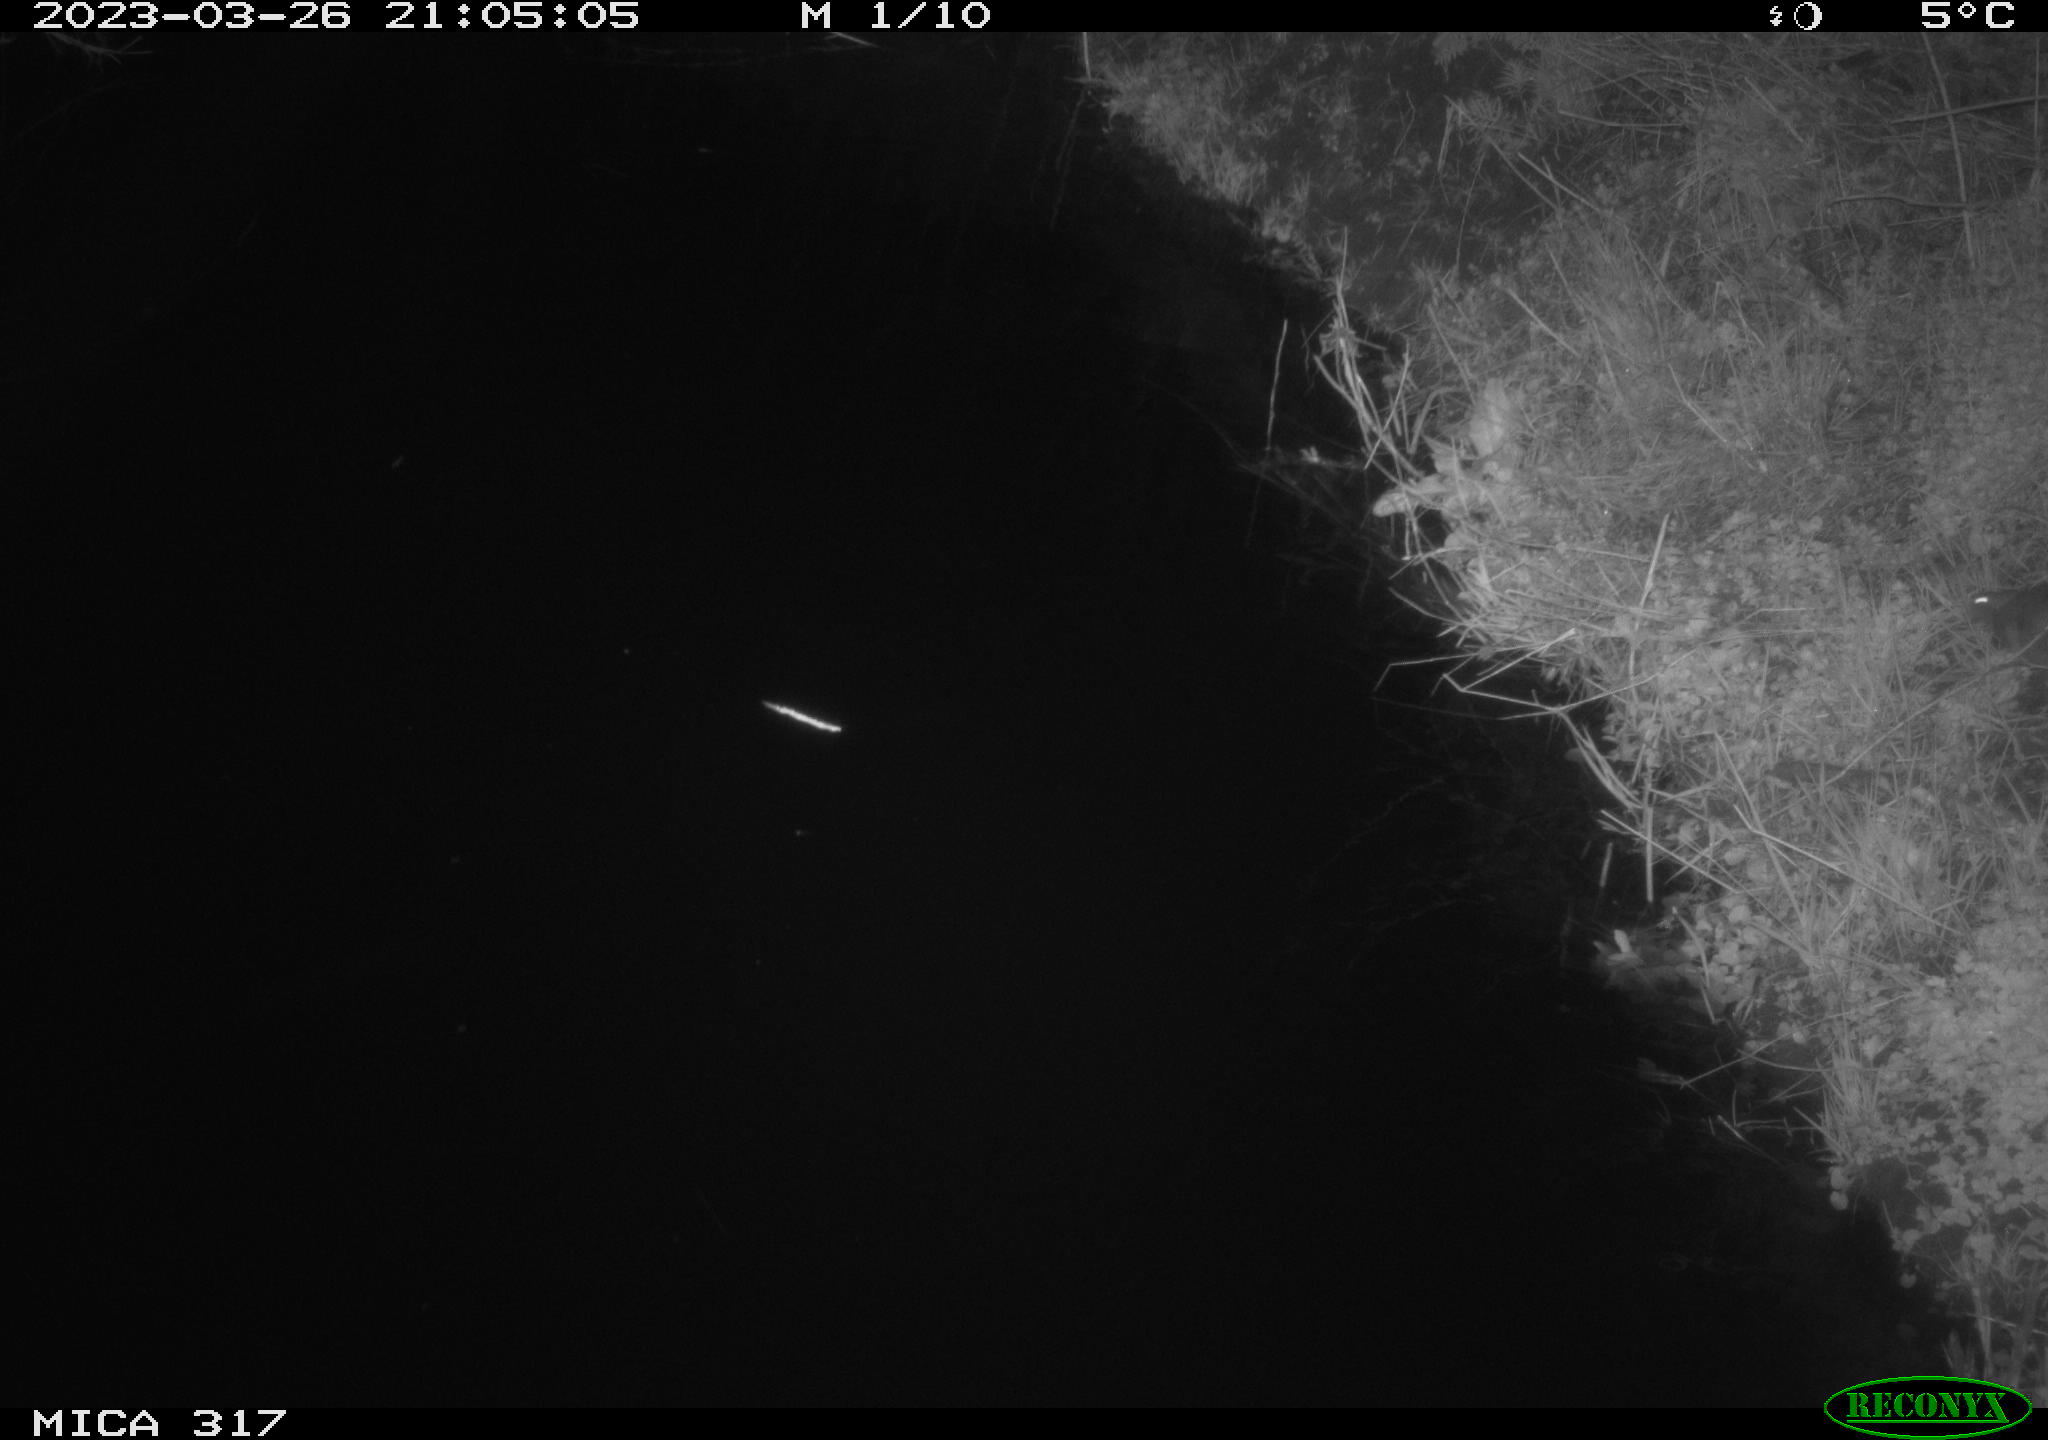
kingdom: Animalia
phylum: Chordata
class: Mammalia
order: Rodentia
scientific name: Rodentia
